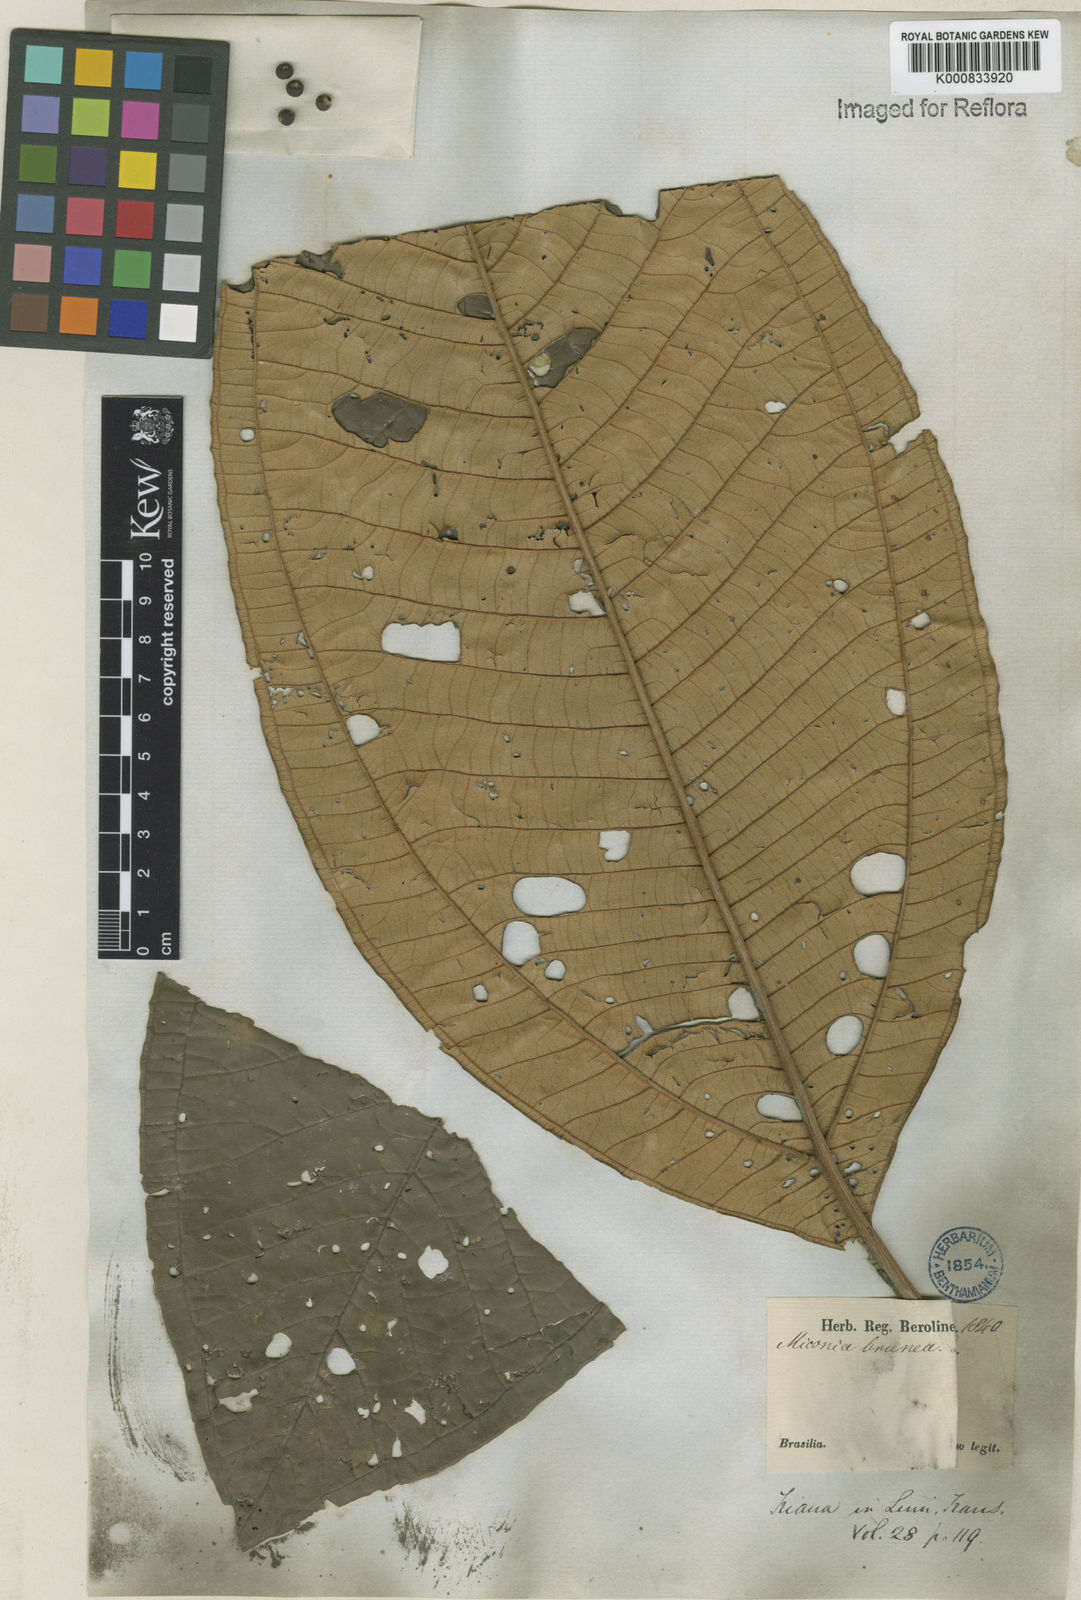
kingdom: Plantae
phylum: Tracheophyta
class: Magnoliopsida
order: Myrtales
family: Melastomataceae
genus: Miconia
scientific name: Miconia brunnea
